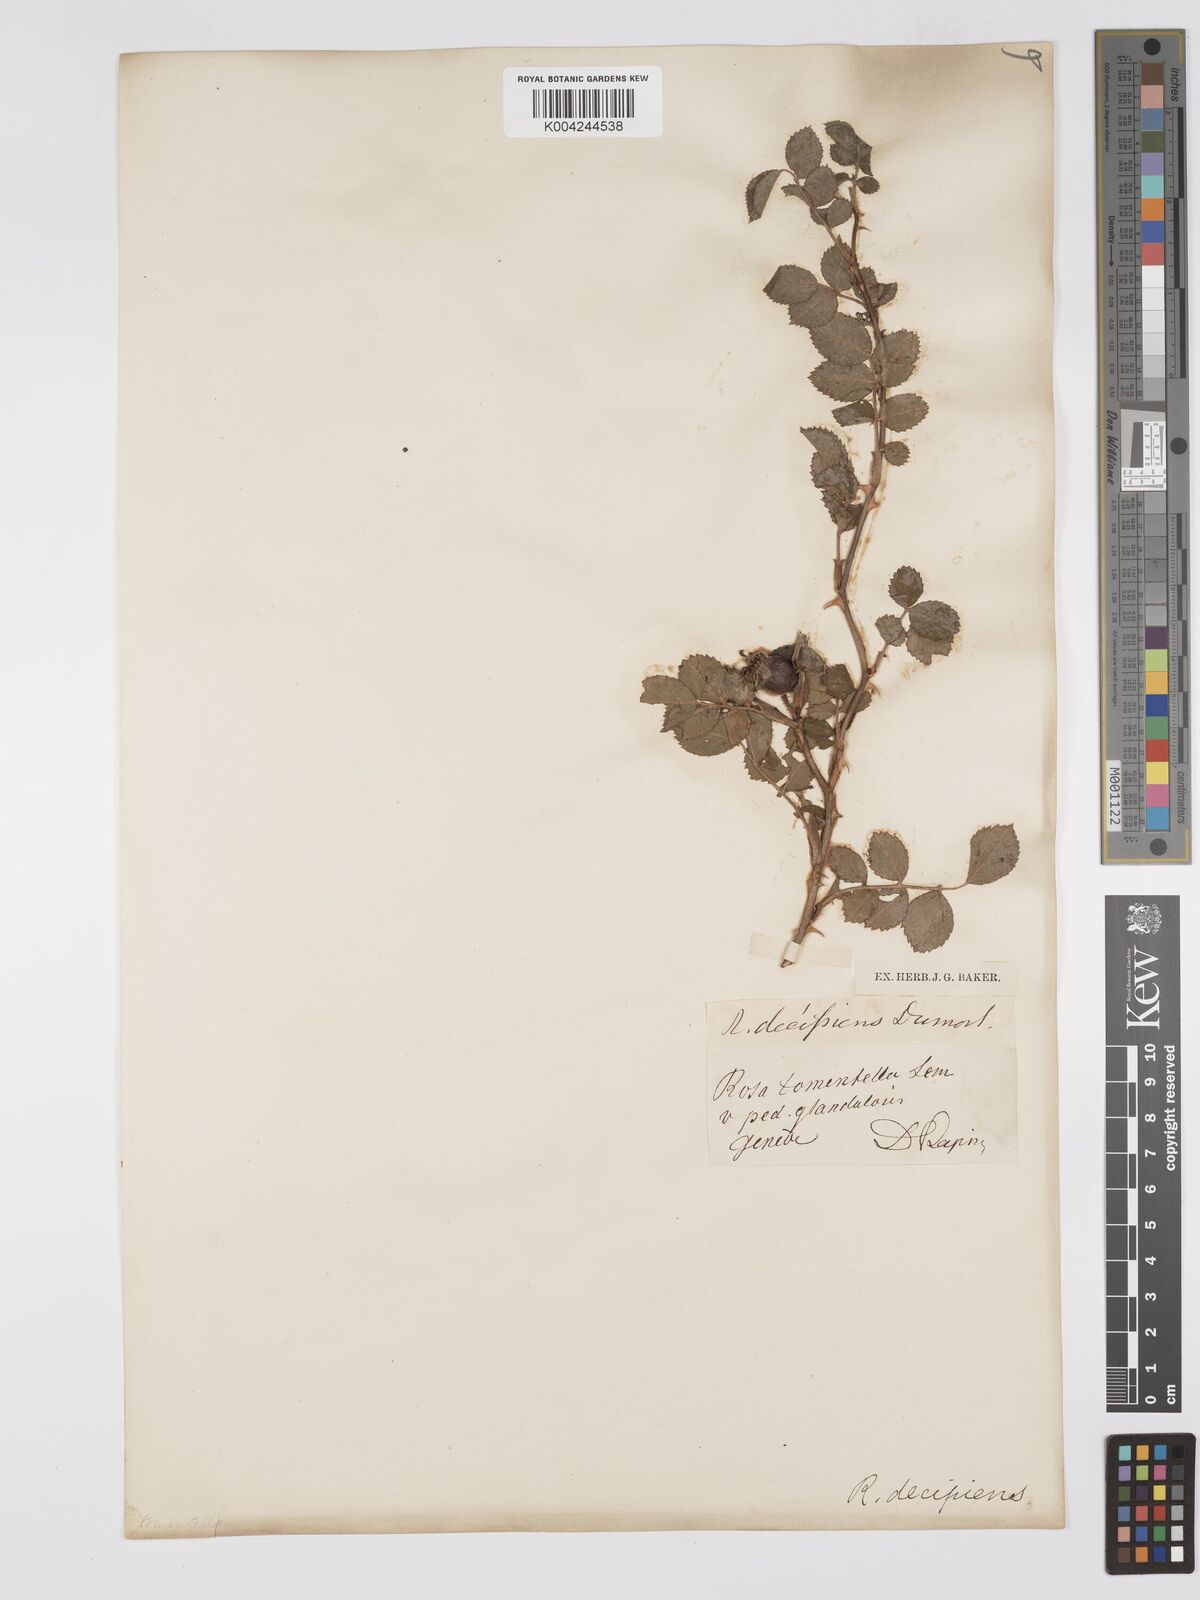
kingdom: Plantae
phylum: Tracheophyta
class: Magnoliopsida
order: Rosales
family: Rosaceae
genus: Rosa
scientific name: Rosa
